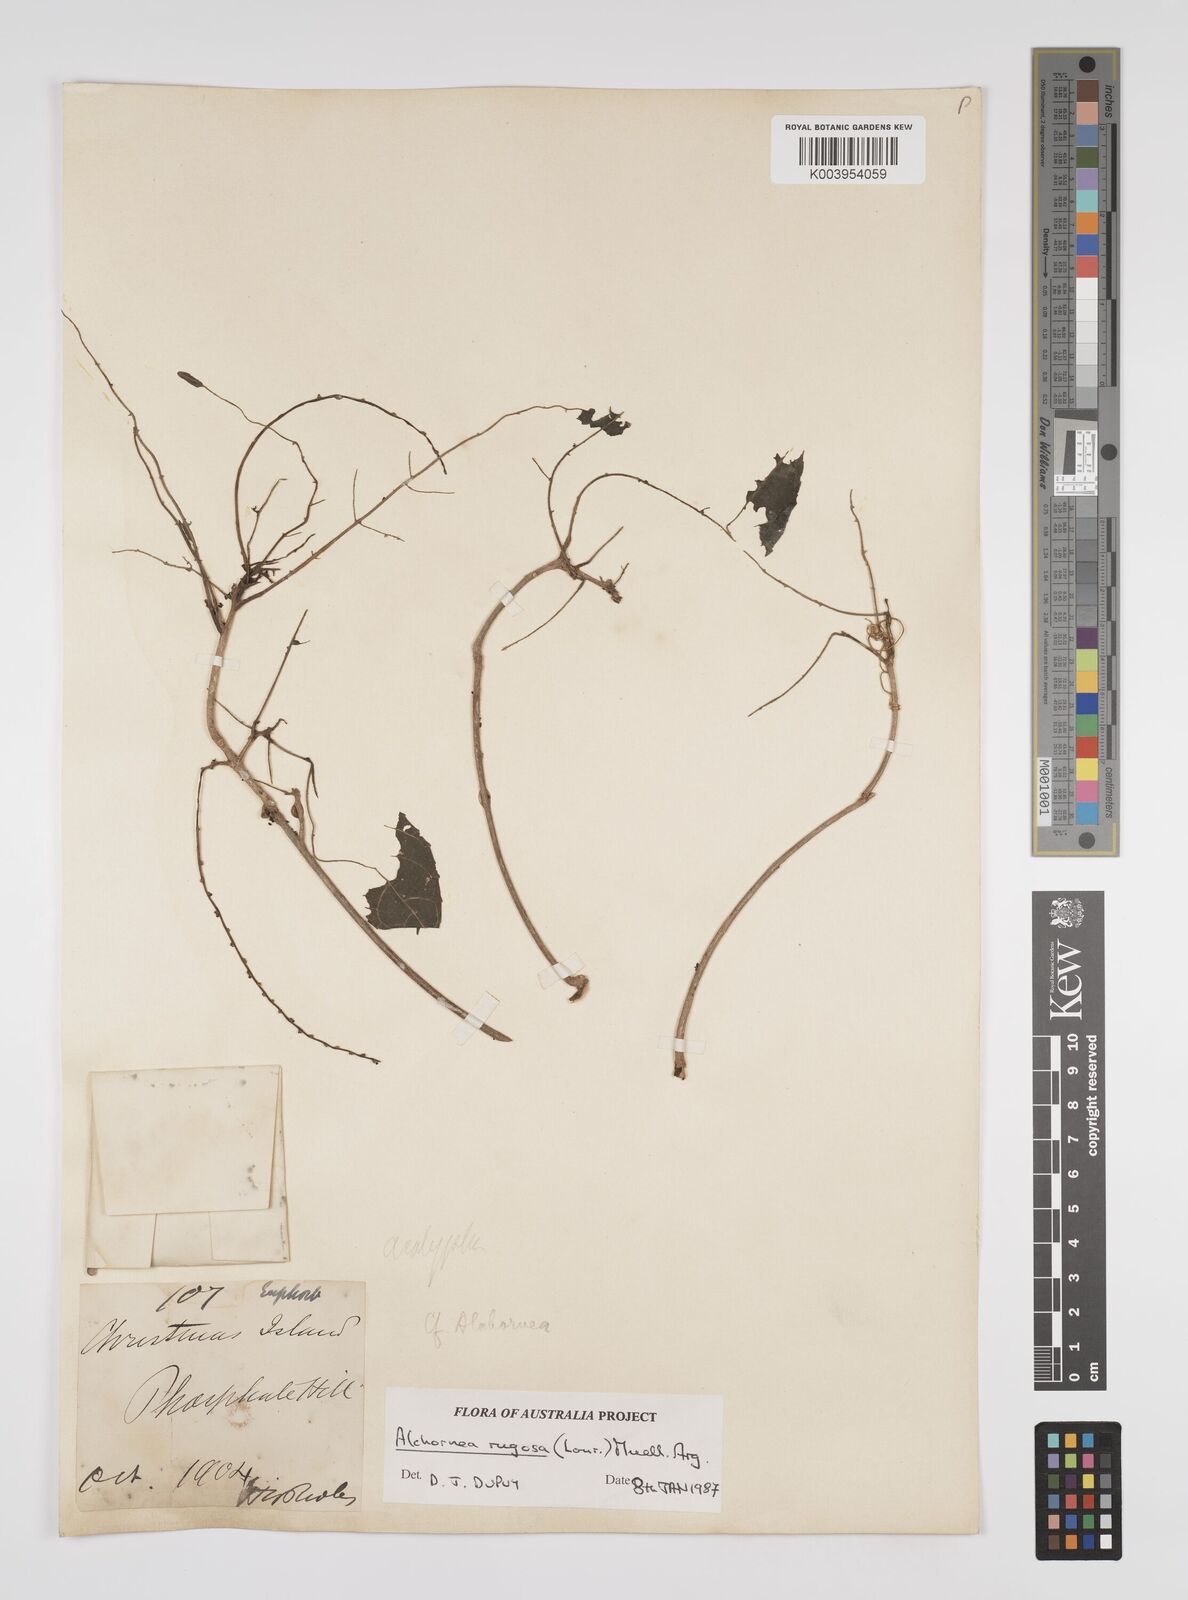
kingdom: Plantae
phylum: Tracheophyta
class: Magnoliopsida
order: Malpighiales
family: Euphorbiaceae
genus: Alchornea
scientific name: Alchornea rugosa
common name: Alchorntree
